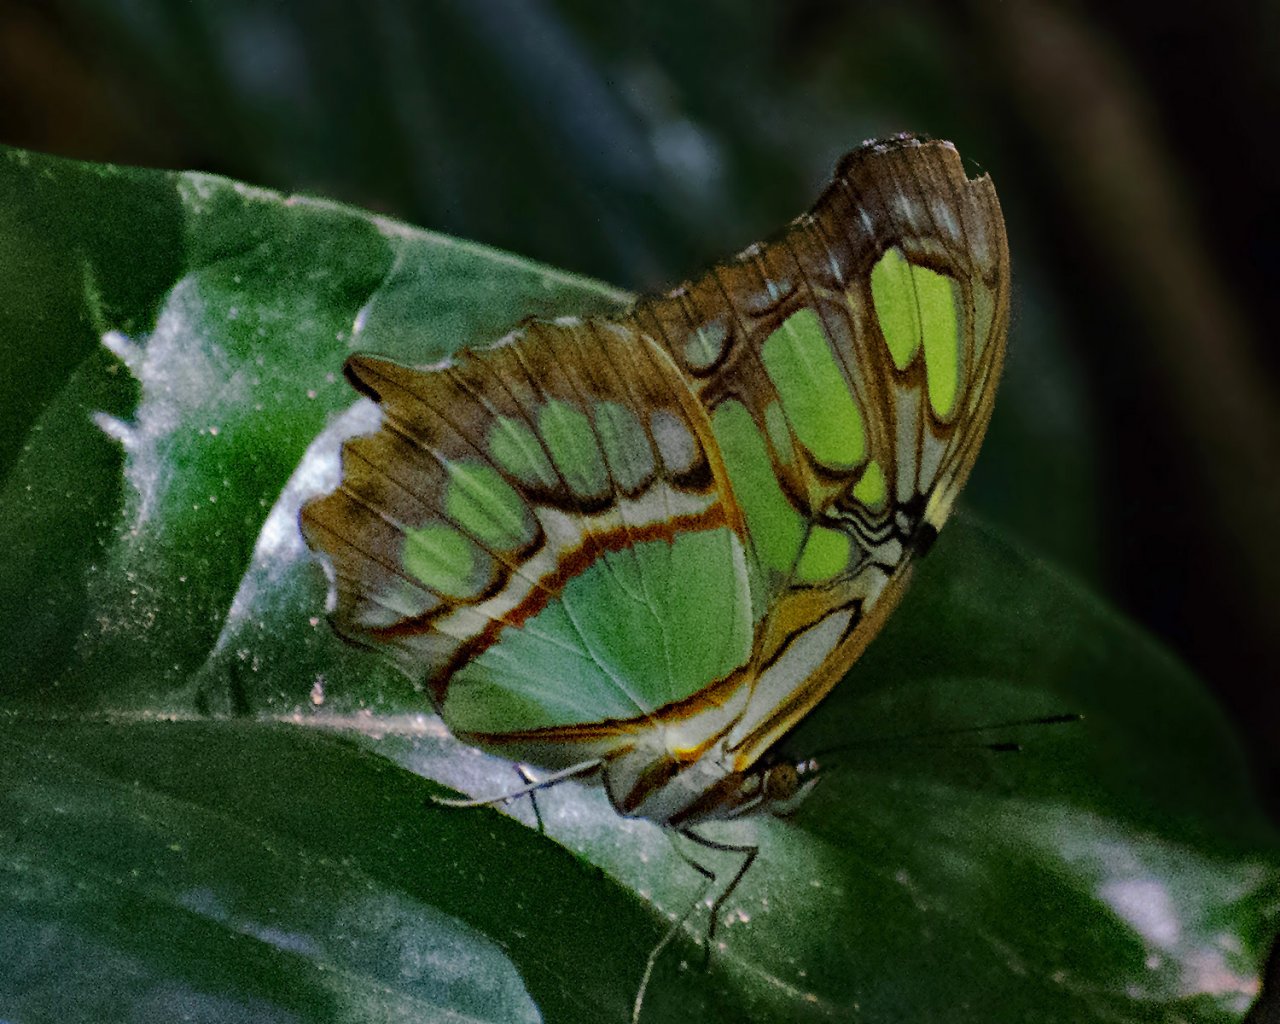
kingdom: Animalia
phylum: Arthropoda
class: Insecta
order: Lepidoptera
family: Nymphalidae
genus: Siproeta
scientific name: Siproeta stelenes
